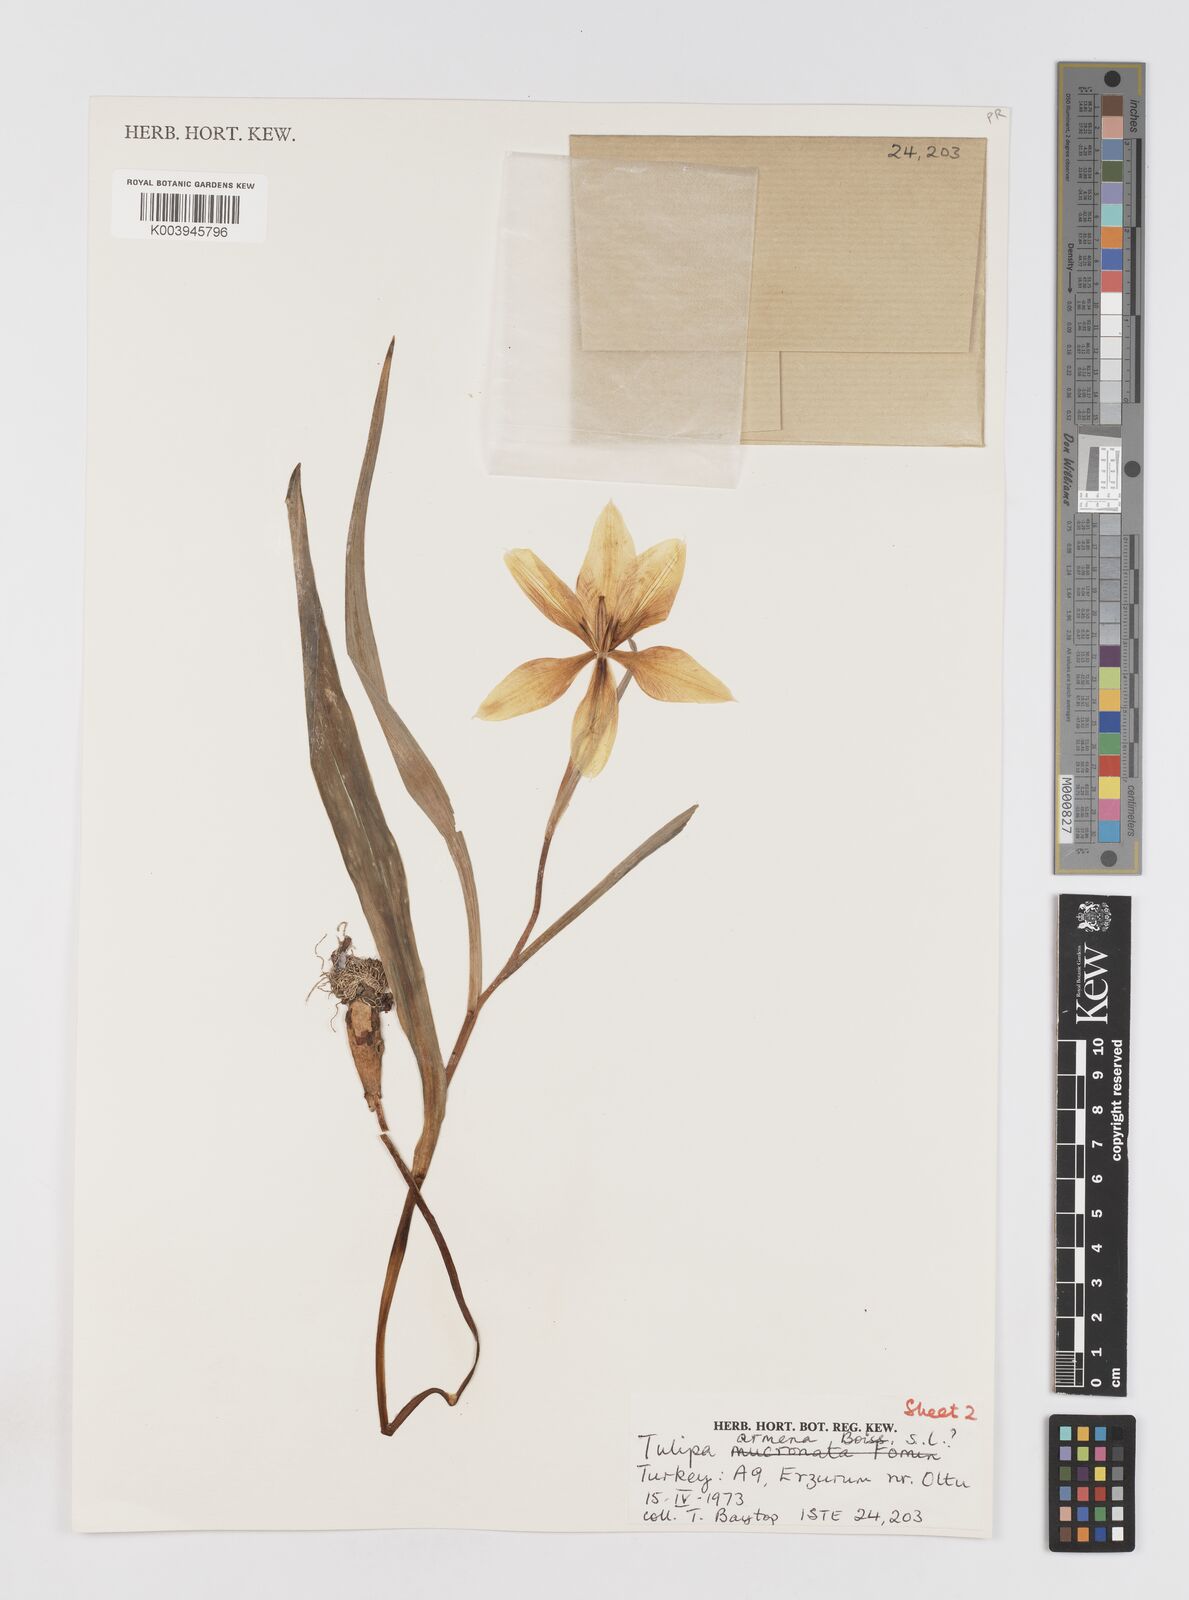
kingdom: Plantae
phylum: Tracheophyta
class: Liliopsida
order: Liliales
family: Liliaceae
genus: Tulipa
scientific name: Tulipa armena
